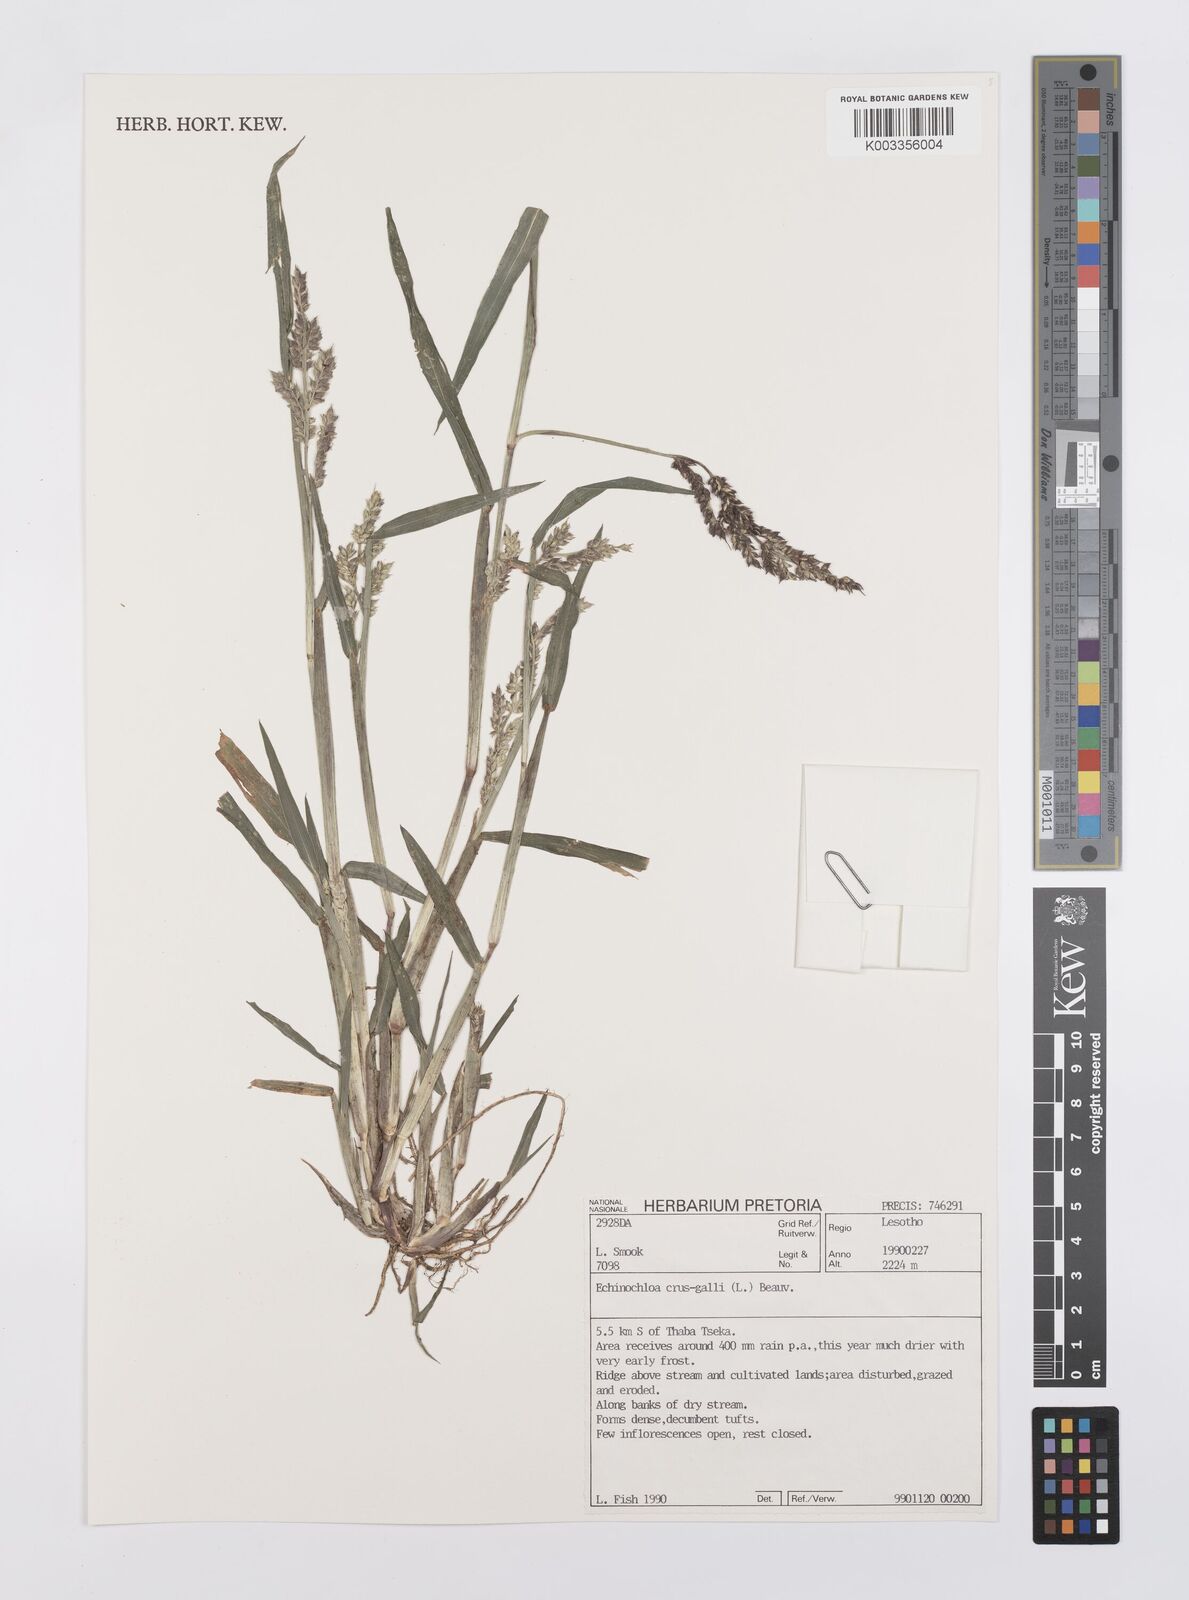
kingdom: Plantae
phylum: Tracheophyta
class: Liliopsida
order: Poales
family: Poaceae
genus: Echinochloa
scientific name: Echinochloa crus-galli
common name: Cockspur
